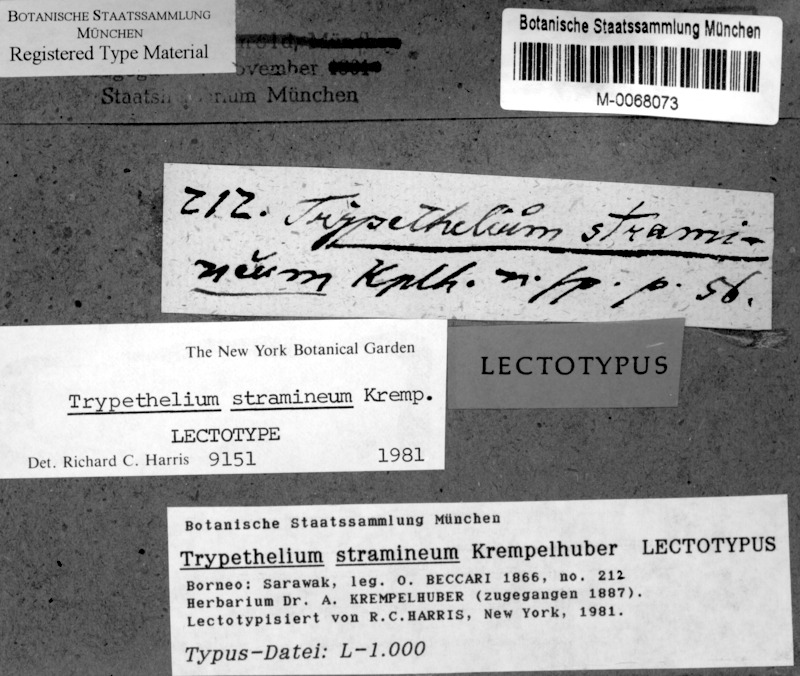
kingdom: Fungi
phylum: Ascomycota
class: Dothideomycetes
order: Trypetheliales
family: Trypetheliaceae
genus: Trypethelium
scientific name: Trypethelium stramineum
